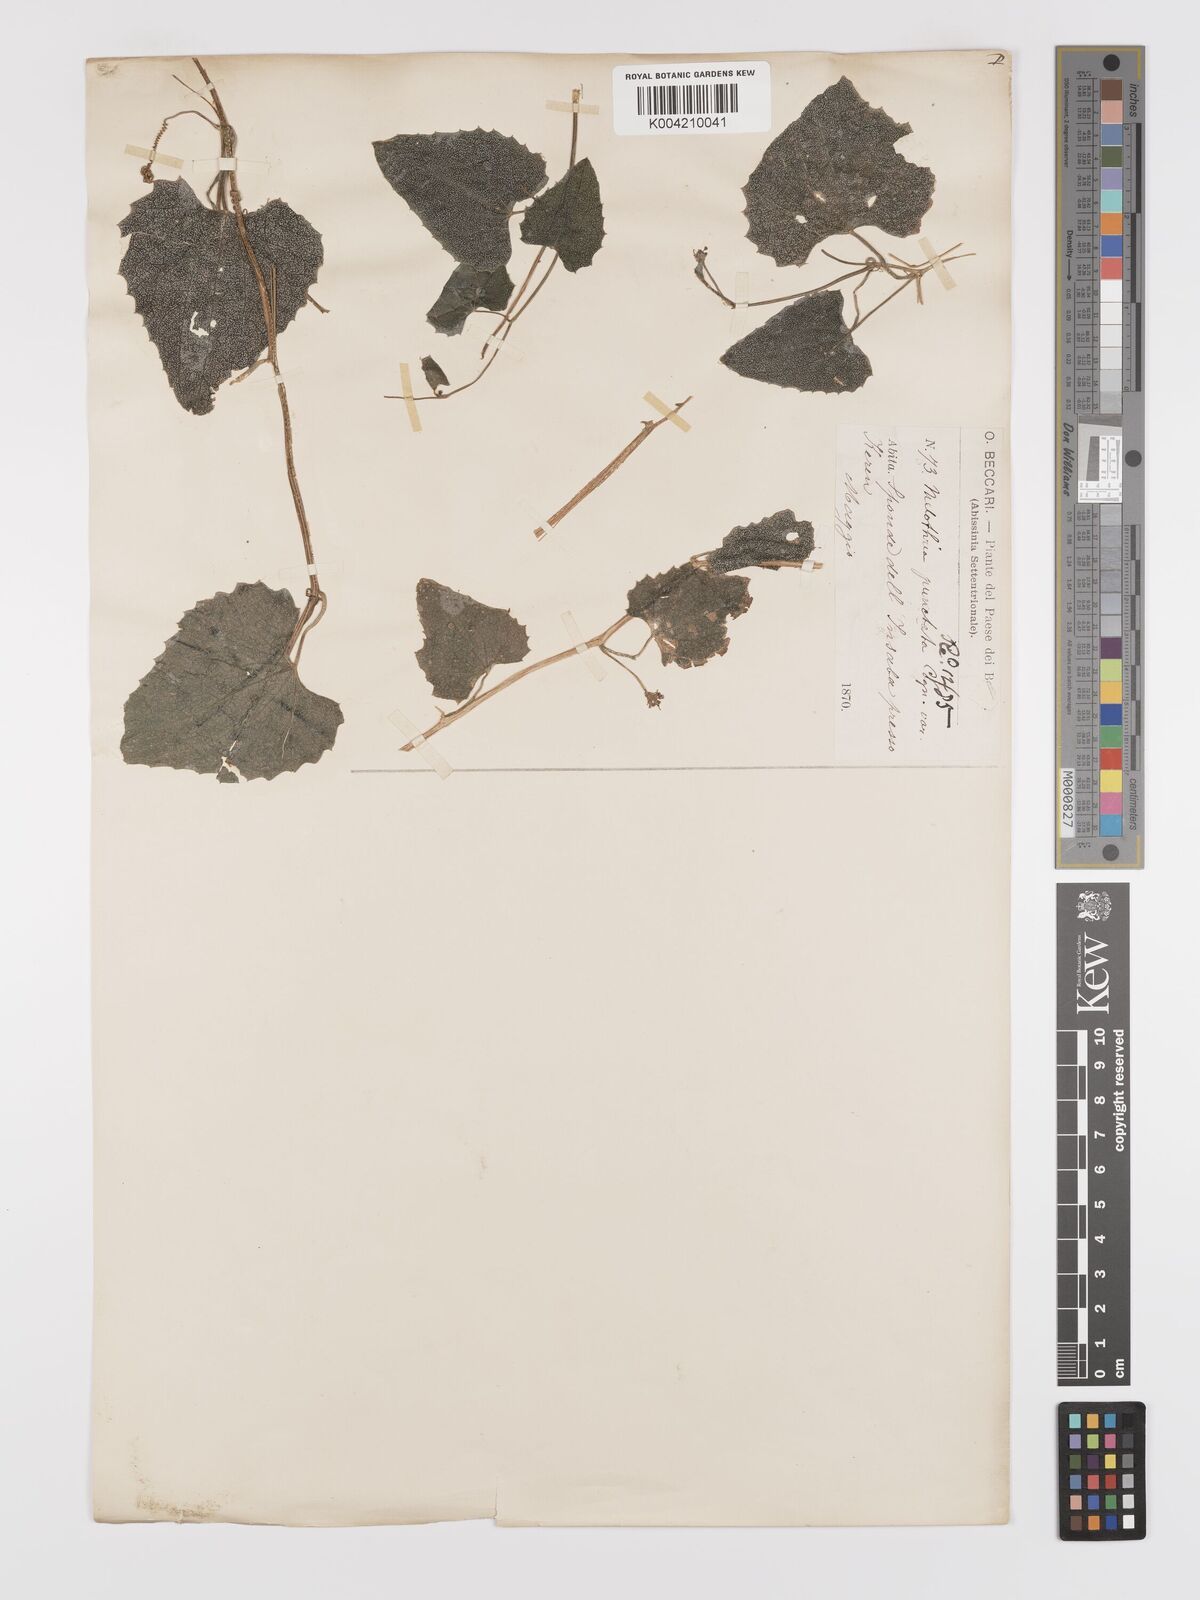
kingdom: Plantae
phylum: Tracheophyta
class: Magnoliopsida
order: Cucurbitales
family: Cucurbitaceae
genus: Zehneria
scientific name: Zehneria scabra
